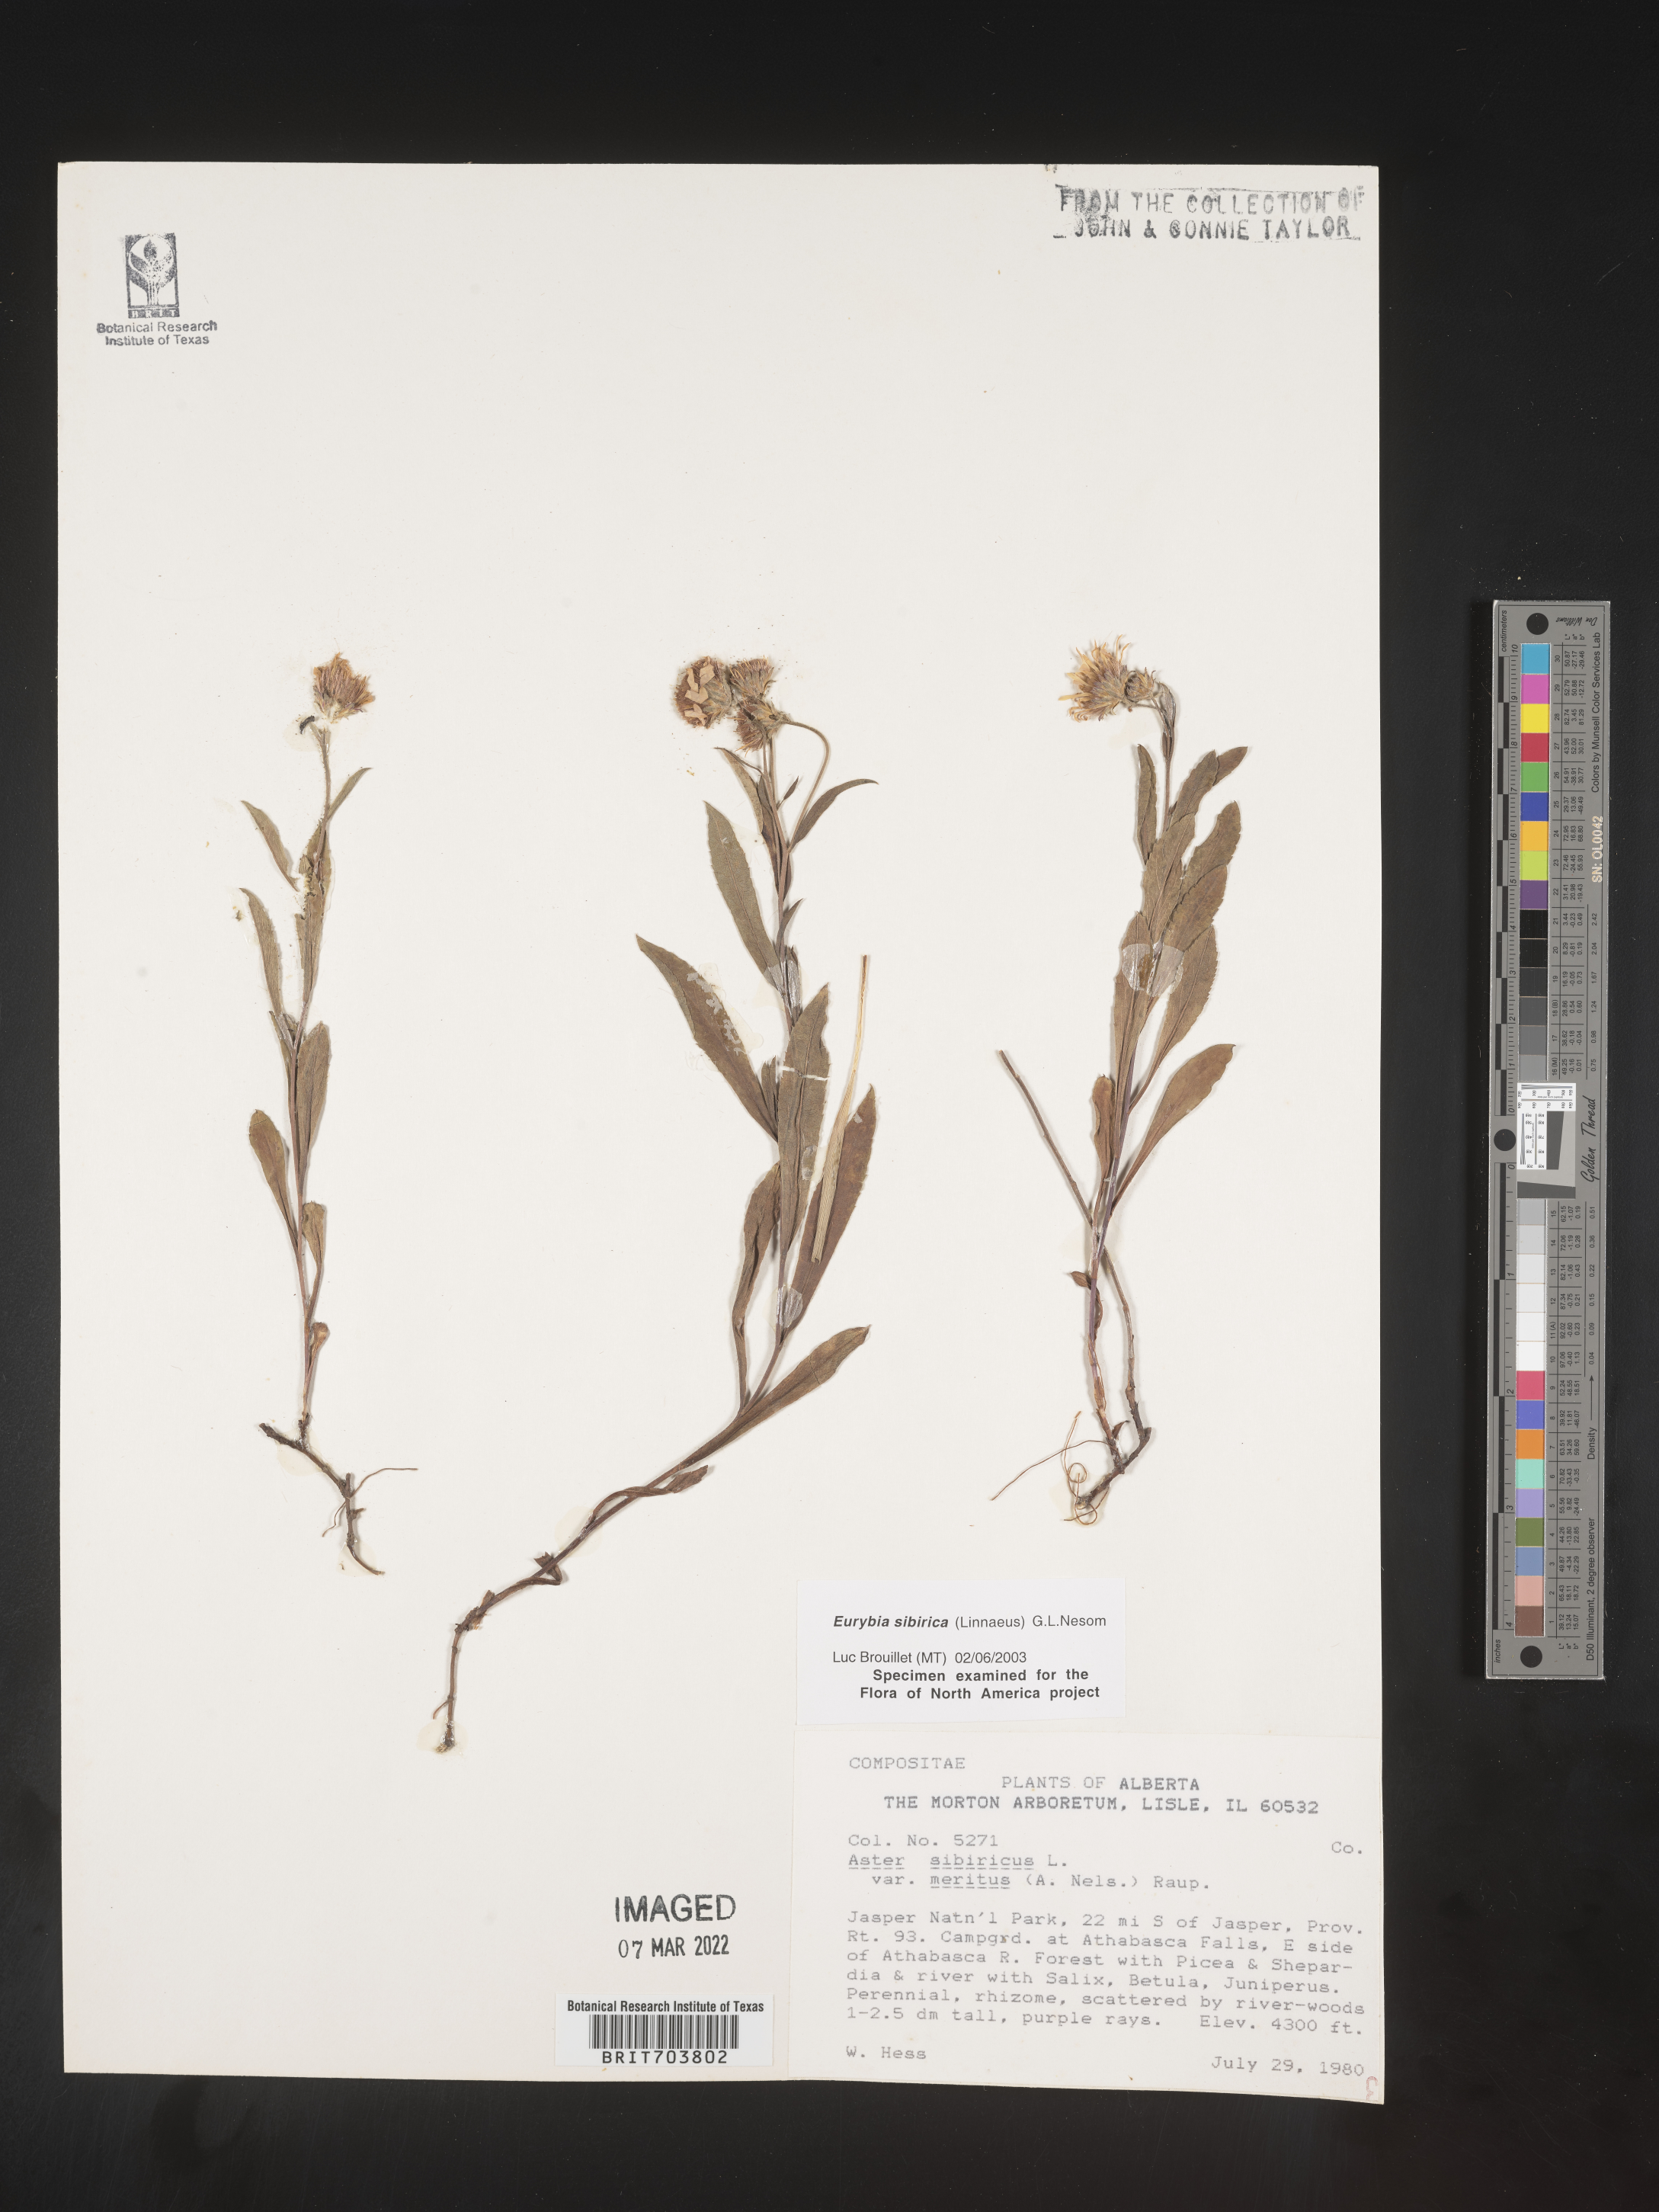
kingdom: Plantae
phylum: Tracheophyta
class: Magnoliopsida
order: Asterales
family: Asteraceae
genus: Eurybia
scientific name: Eurybia sibirica
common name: Arctic aster
